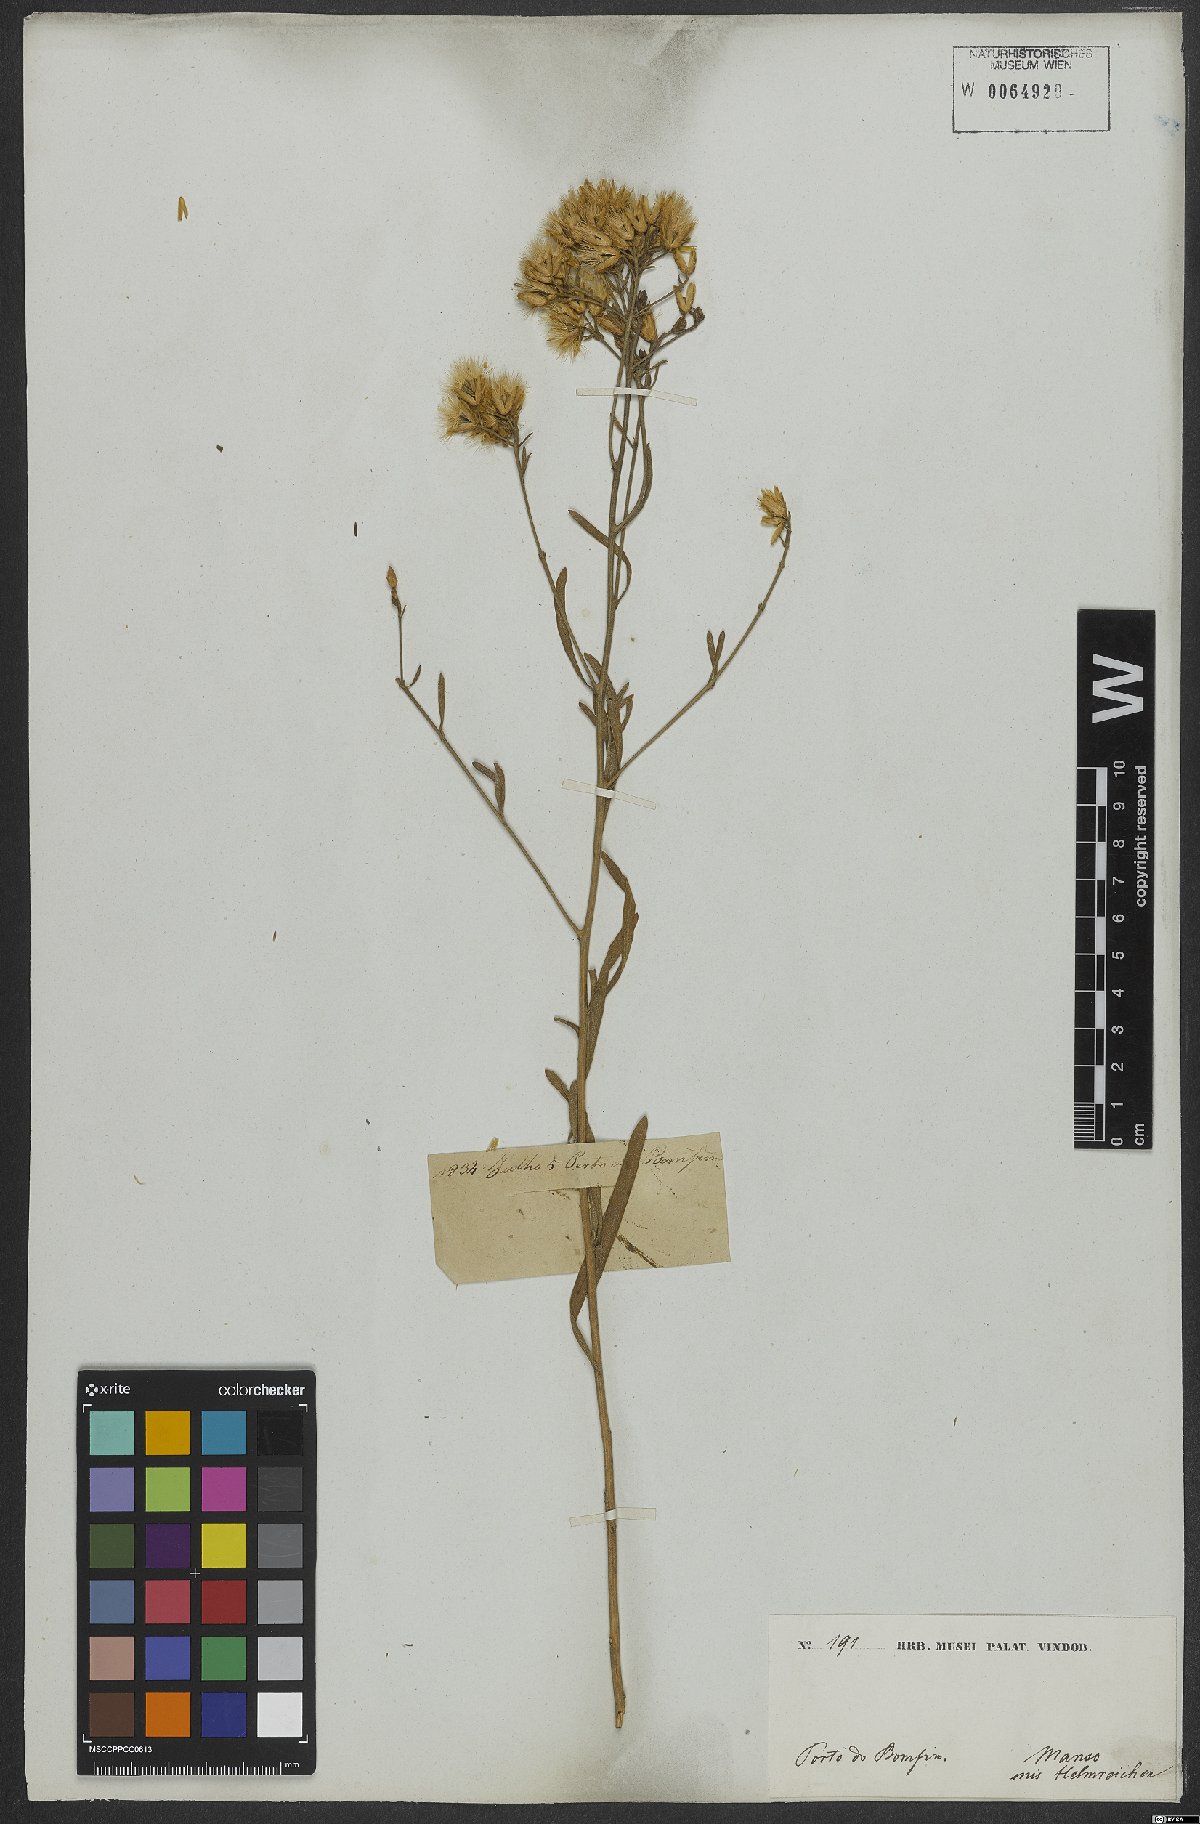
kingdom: Plantae
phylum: Tracheophyta
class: Magnoliopsida
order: Asterales
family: Asteraceae
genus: Echinocoryne
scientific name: Echinocoryne stricta
